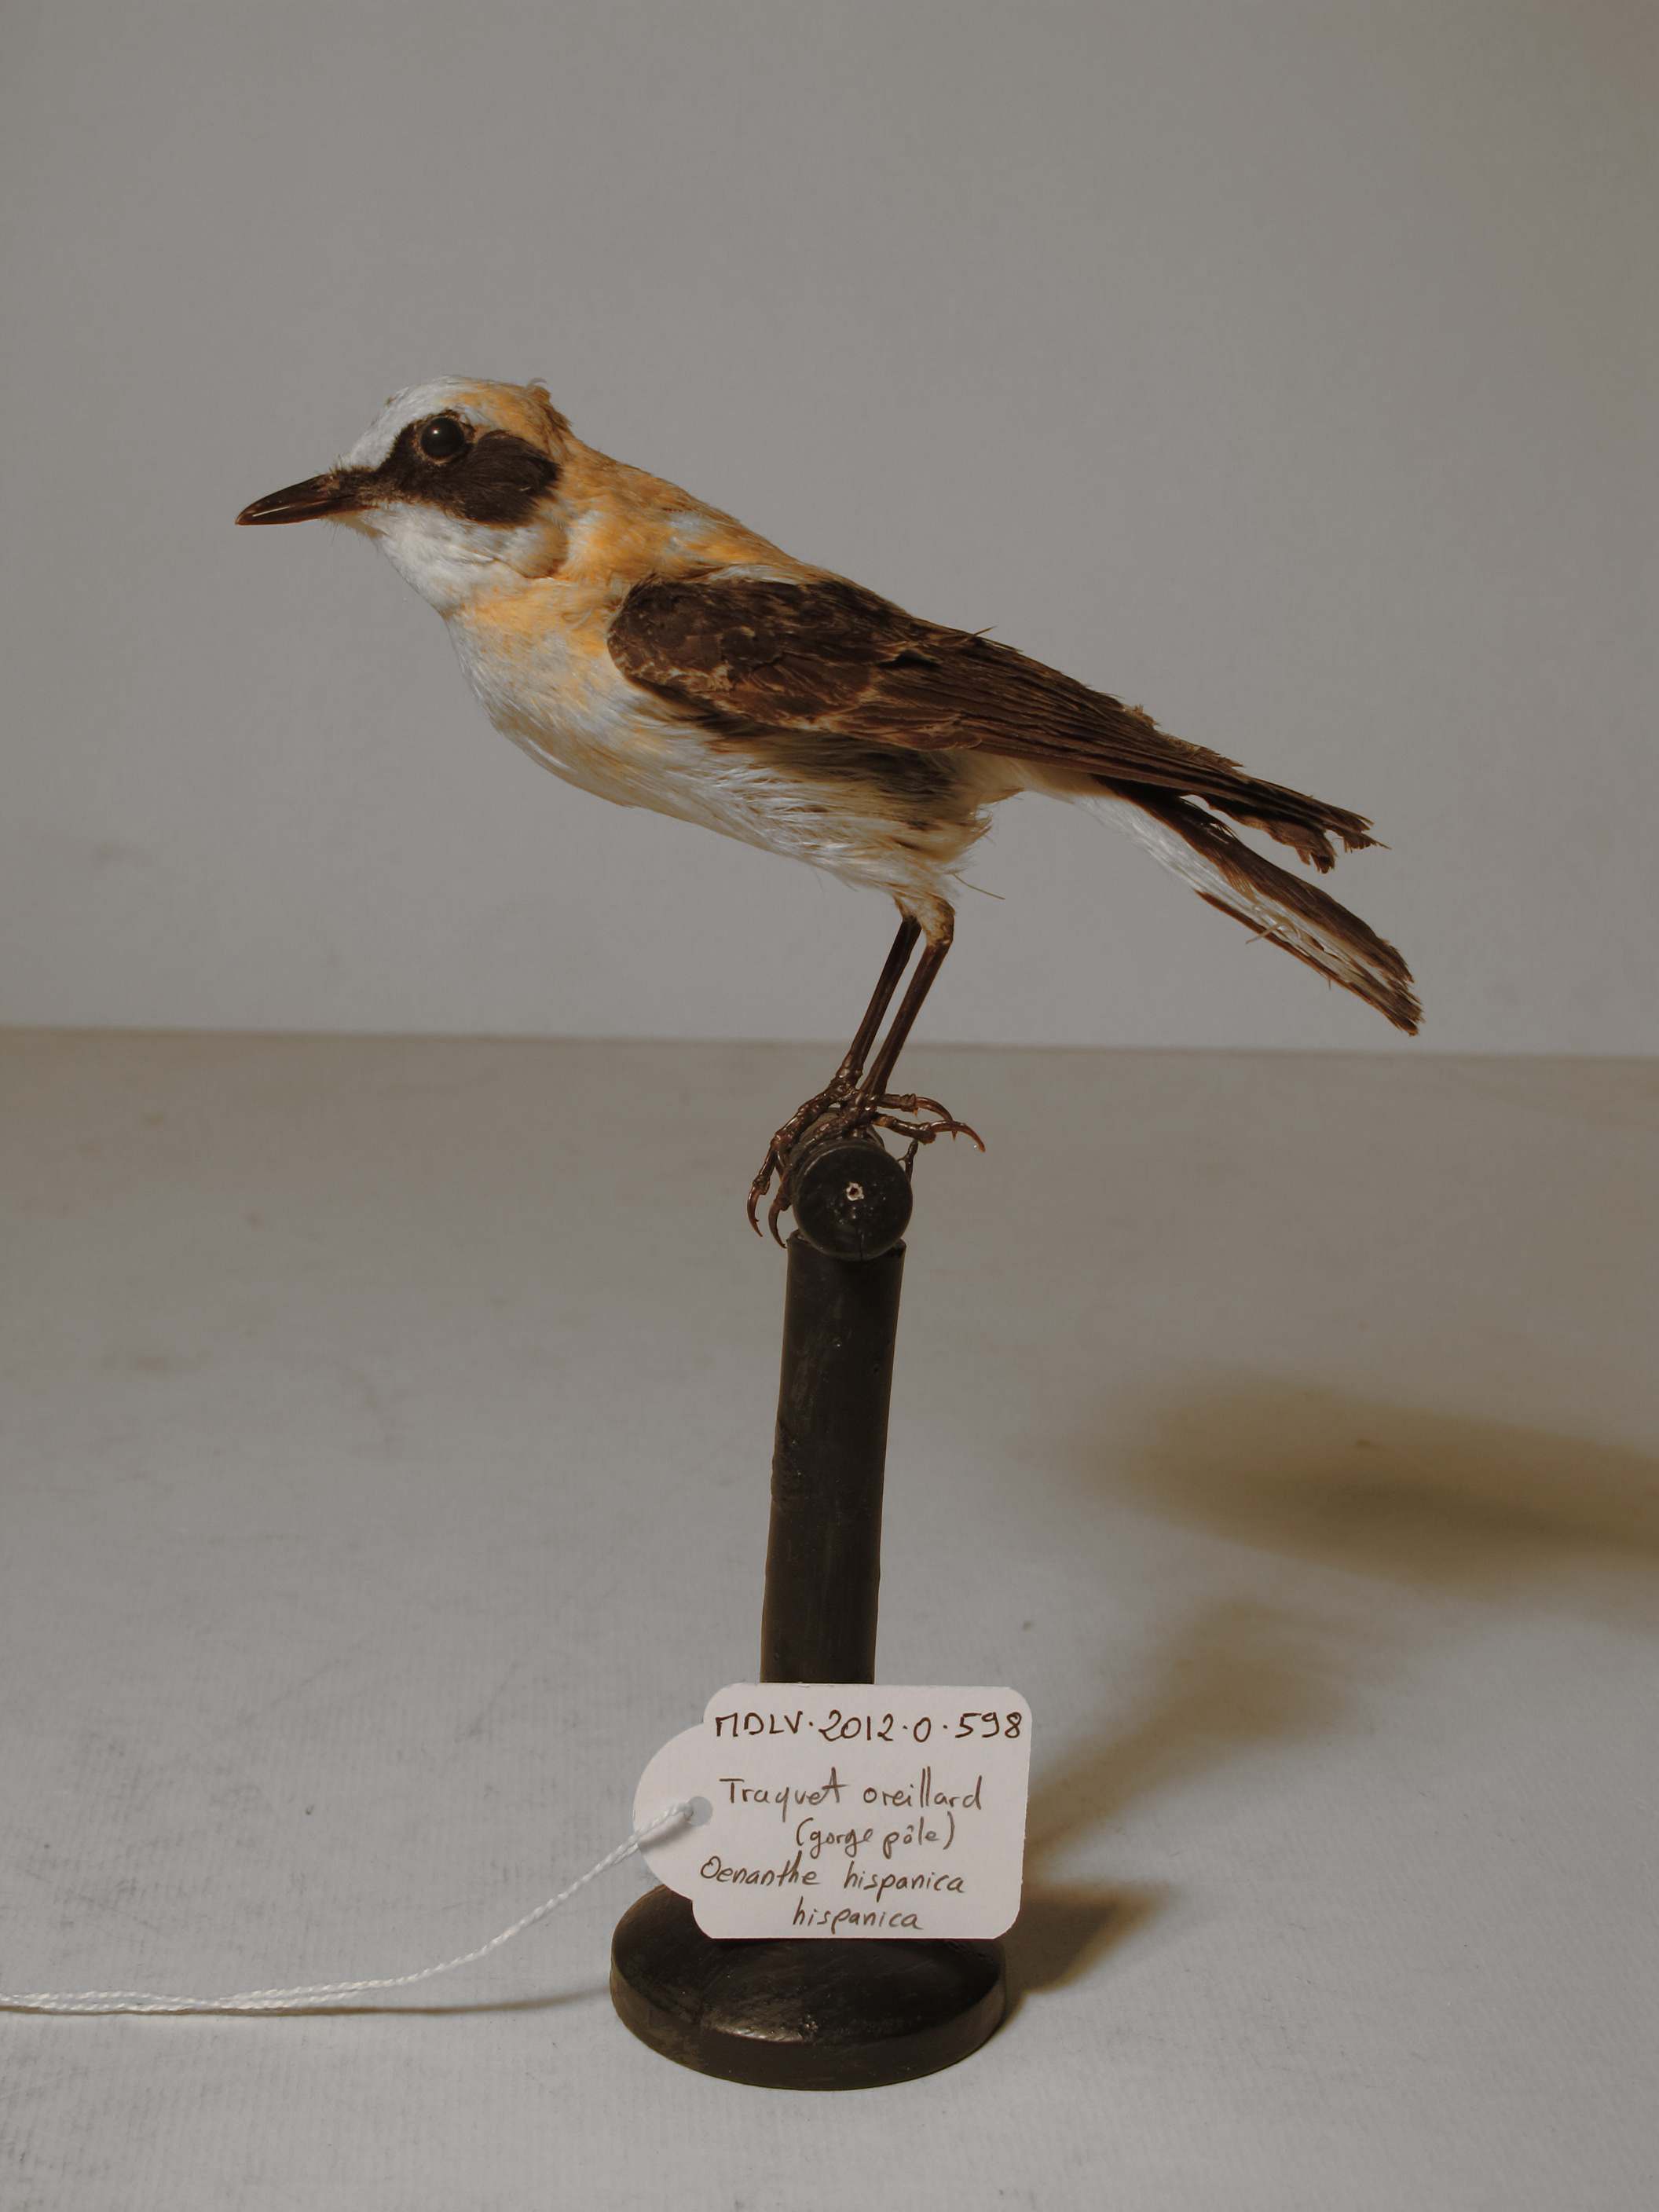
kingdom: Animalia
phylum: Chordata
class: Aves
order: Passeriformes
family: Muscicapidae
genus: Oenanthe
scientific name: Oenanthe hispanica
